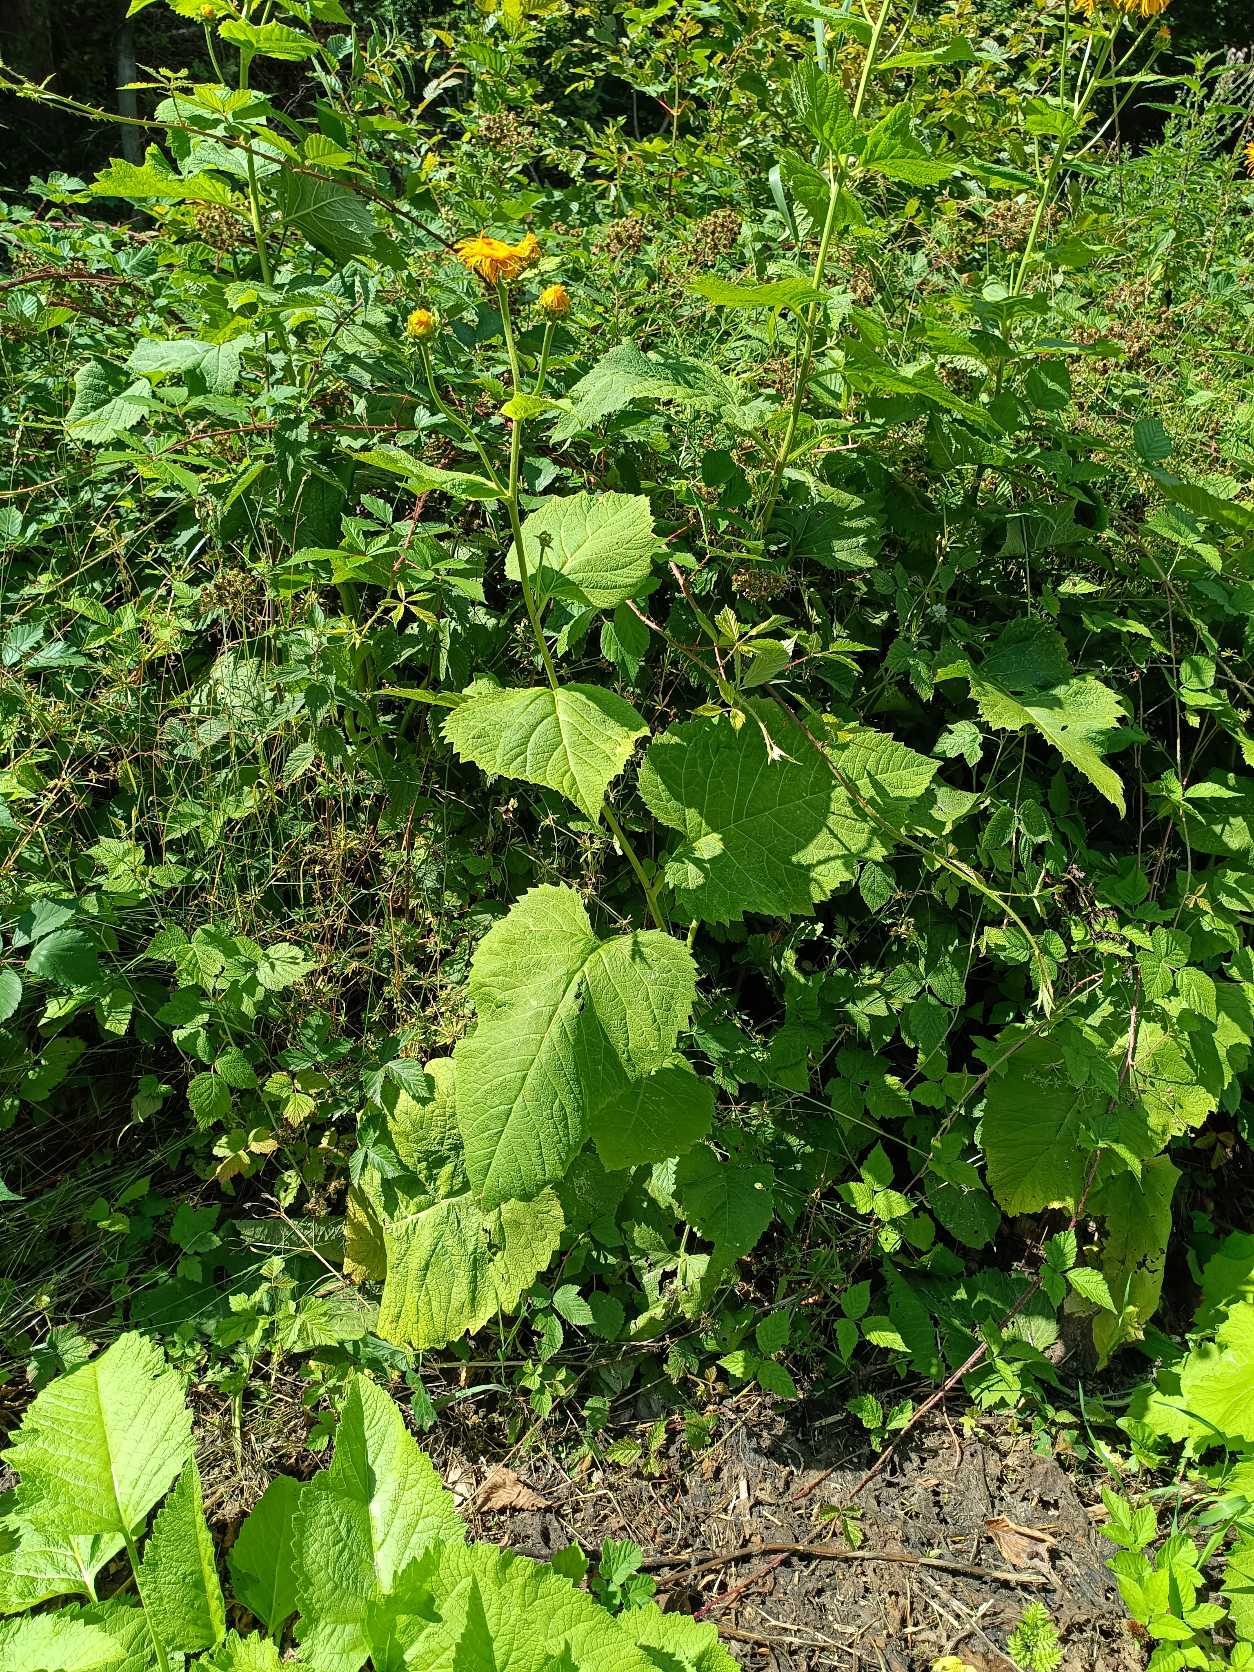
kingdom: Plantae
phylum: Tracheophyta
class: Magnoliopsida
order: Asterales
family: Asteraceae
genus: Telekia
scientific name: Telekia speciosa
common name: Tusindstråle
